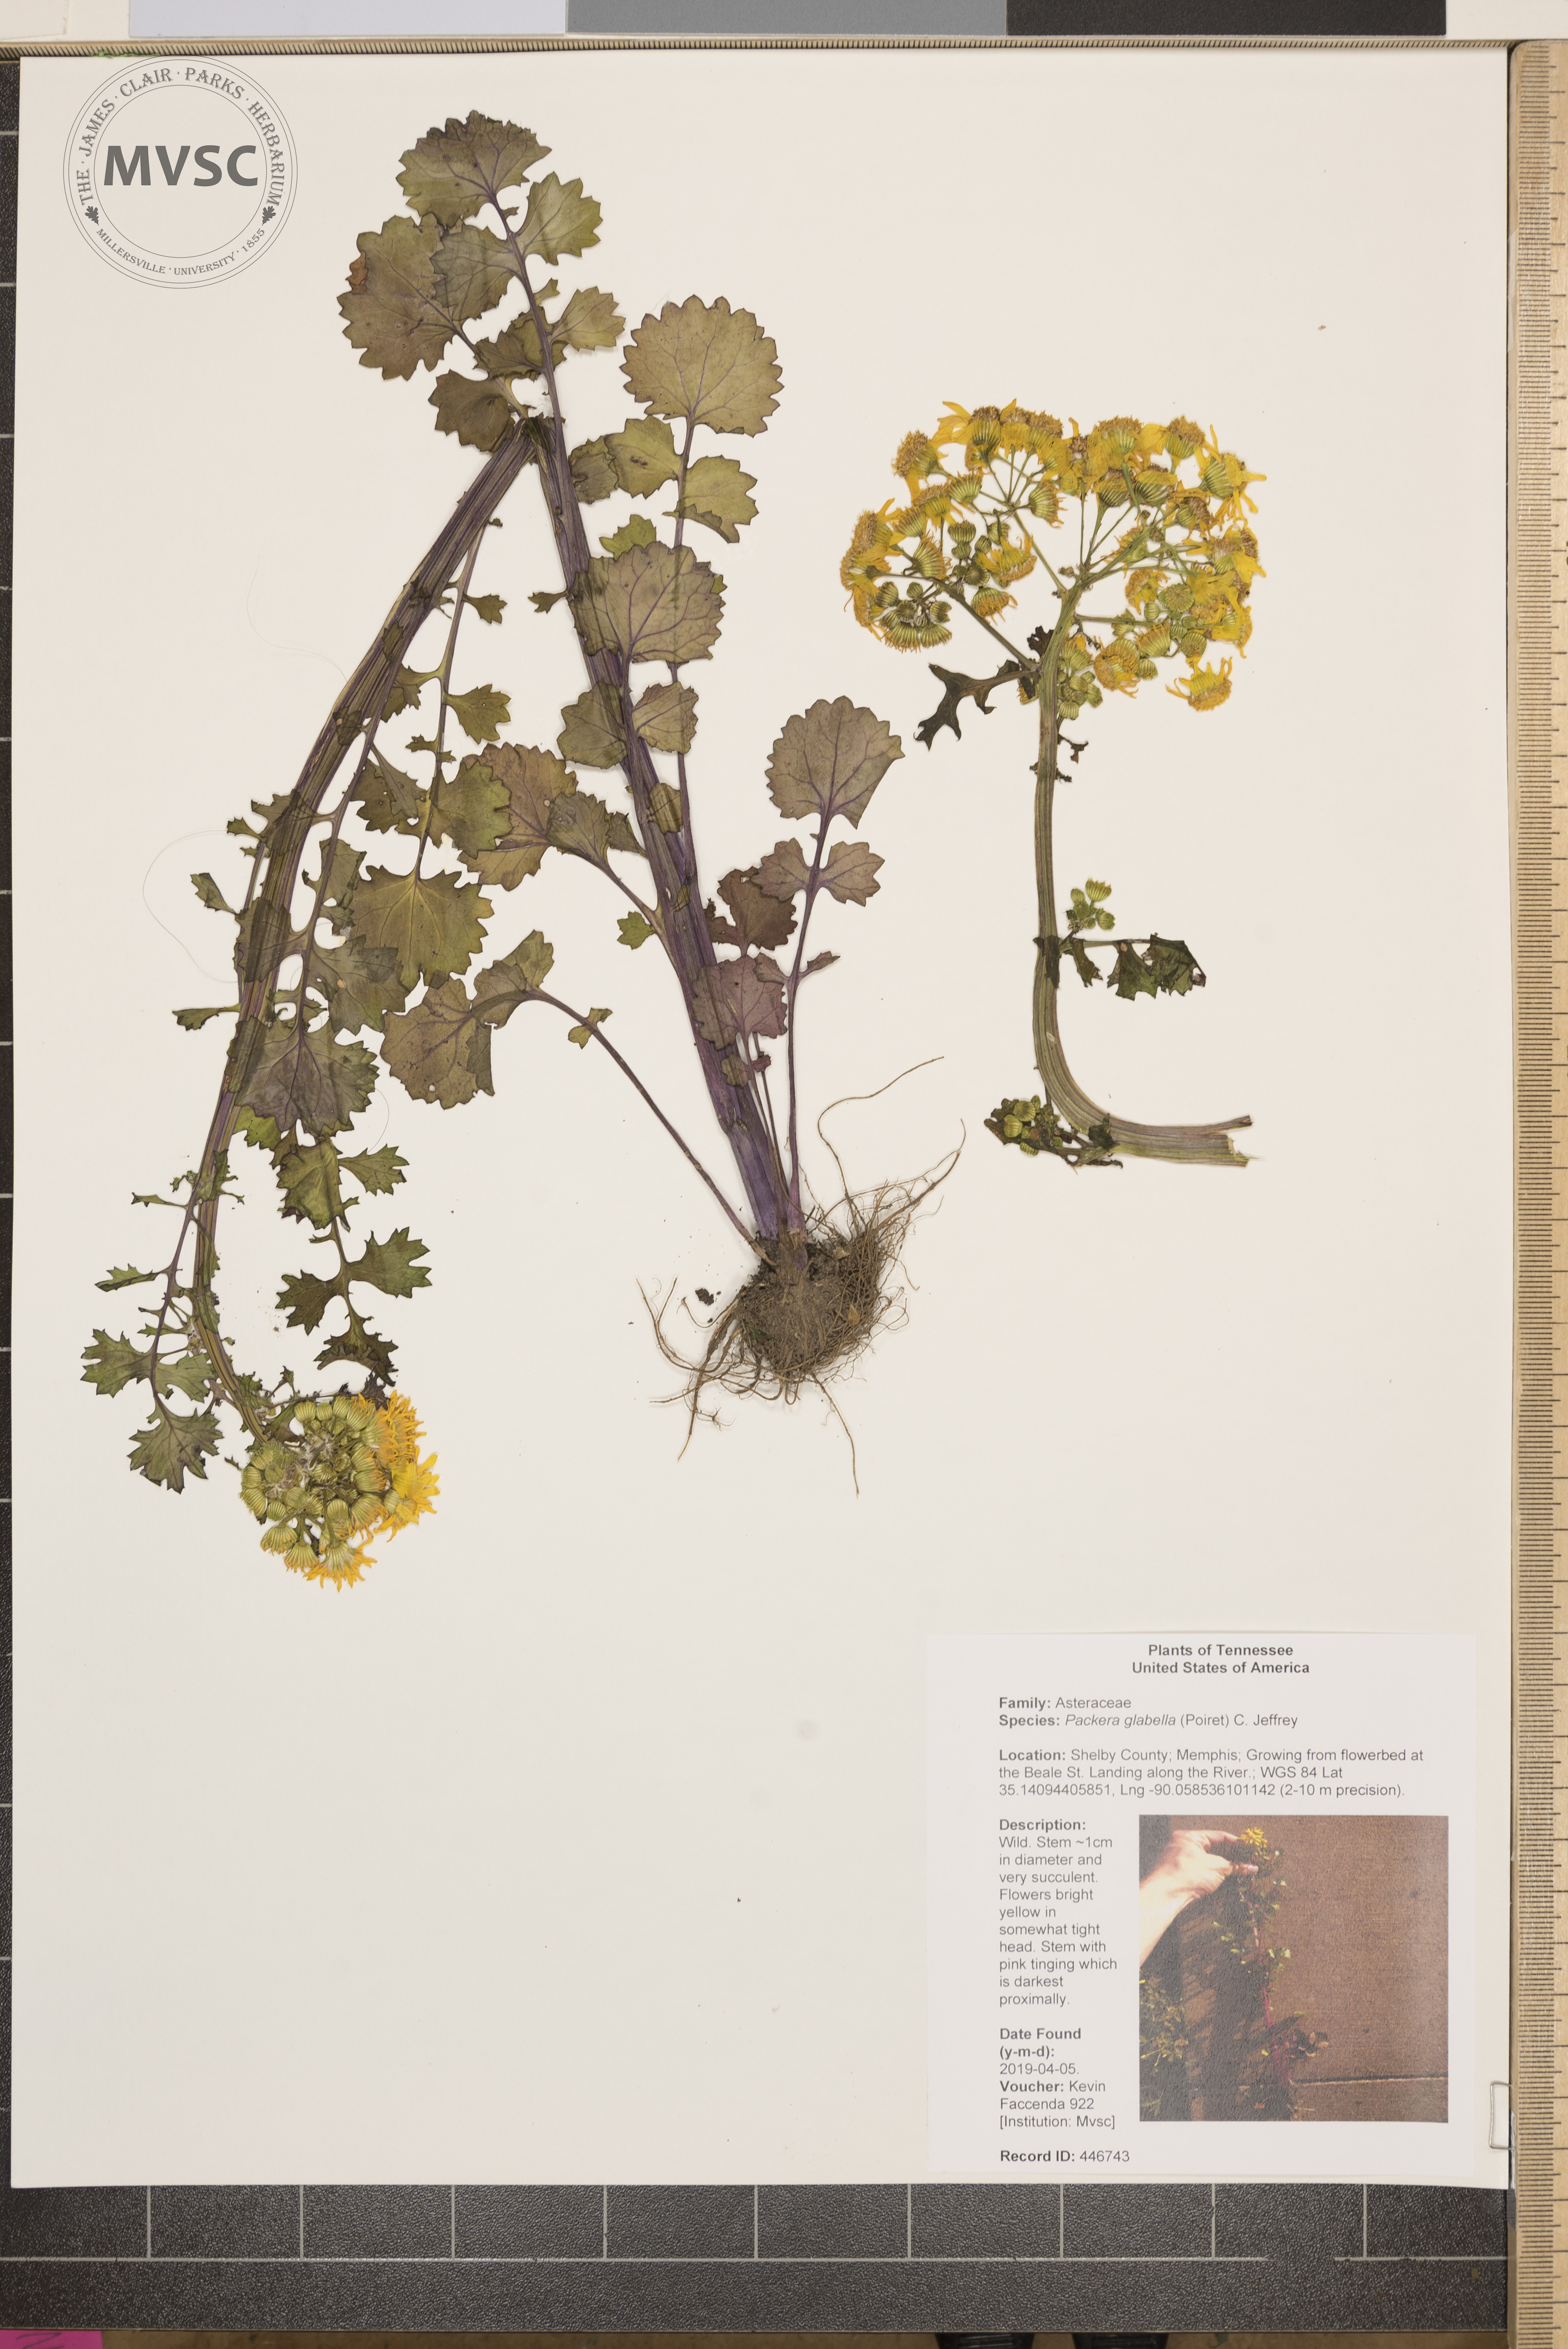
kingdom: Plantae
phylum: Tracheophyta
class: Magnoliopsida
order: Asterales
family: Asteraceae
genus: Packera
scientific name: Packera glabella
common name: Butterweed
